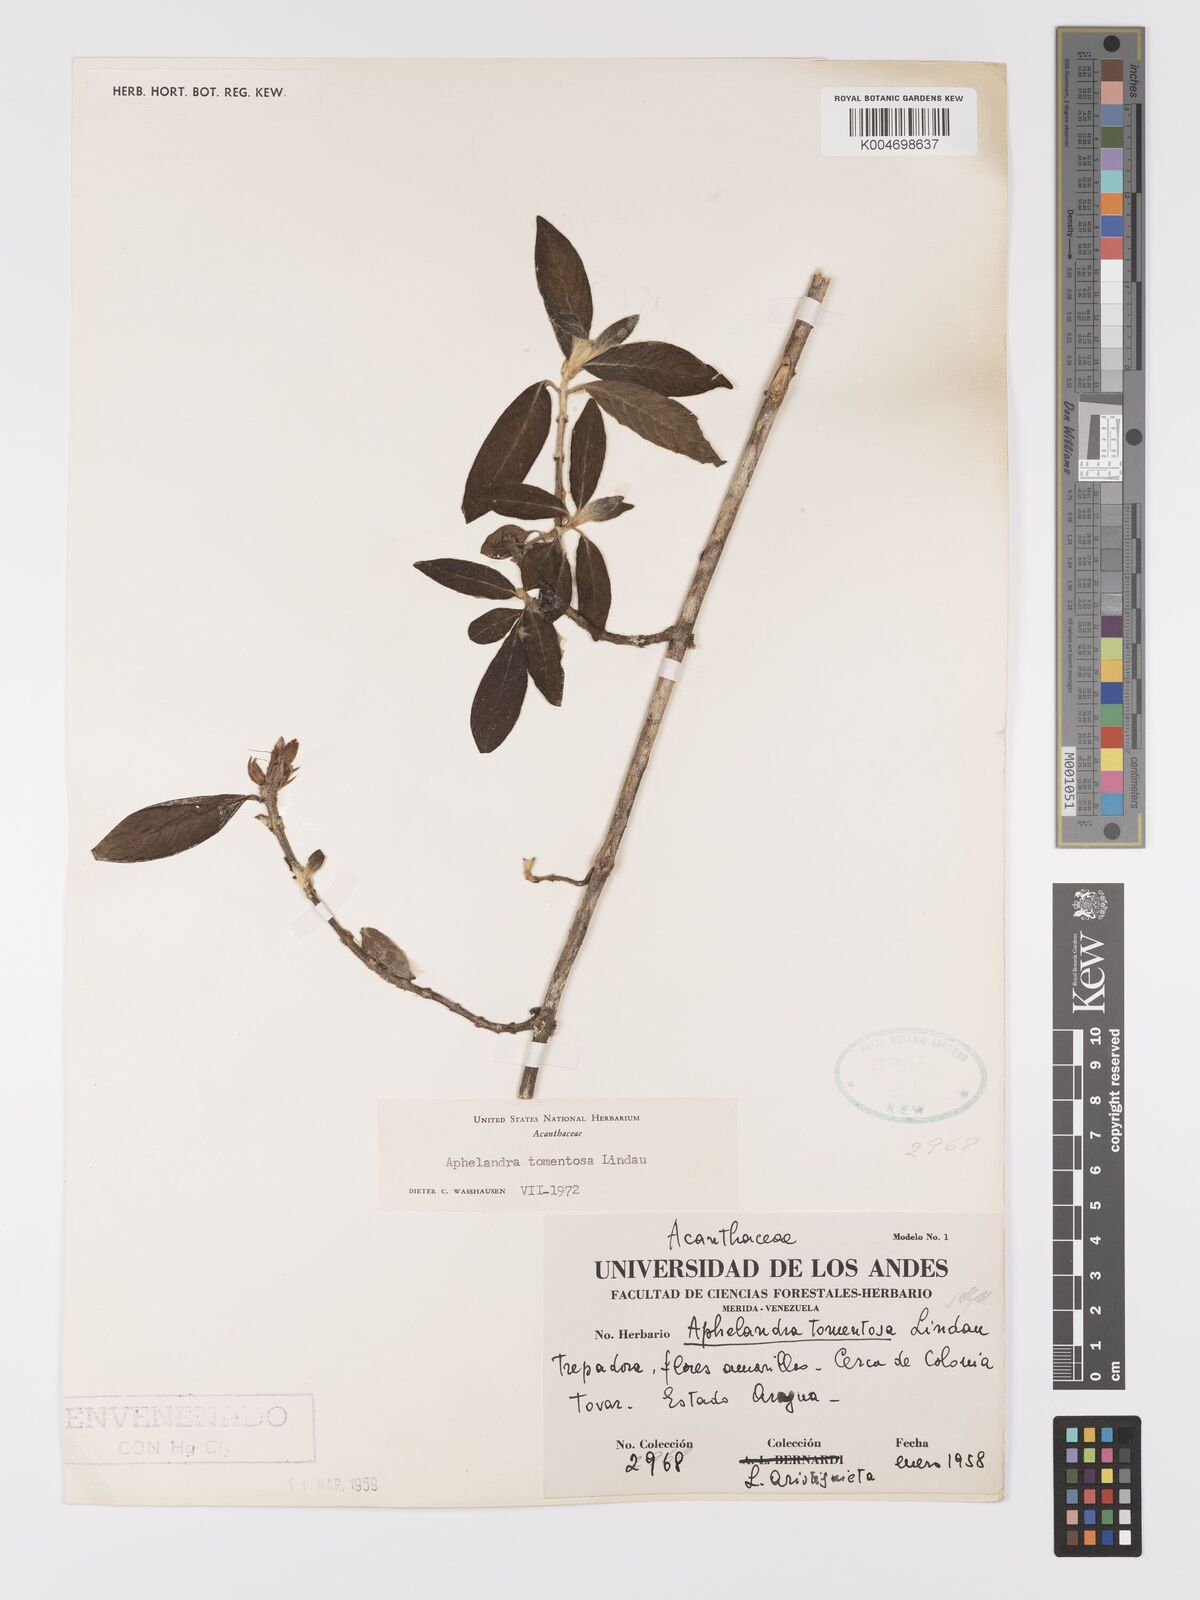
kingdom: Plantae
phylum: Tracheophyta
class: Magnoliopsida
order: Lamiales
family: Acanthaceae
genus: Aphelandra
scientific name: Aphelandra tomentosa
